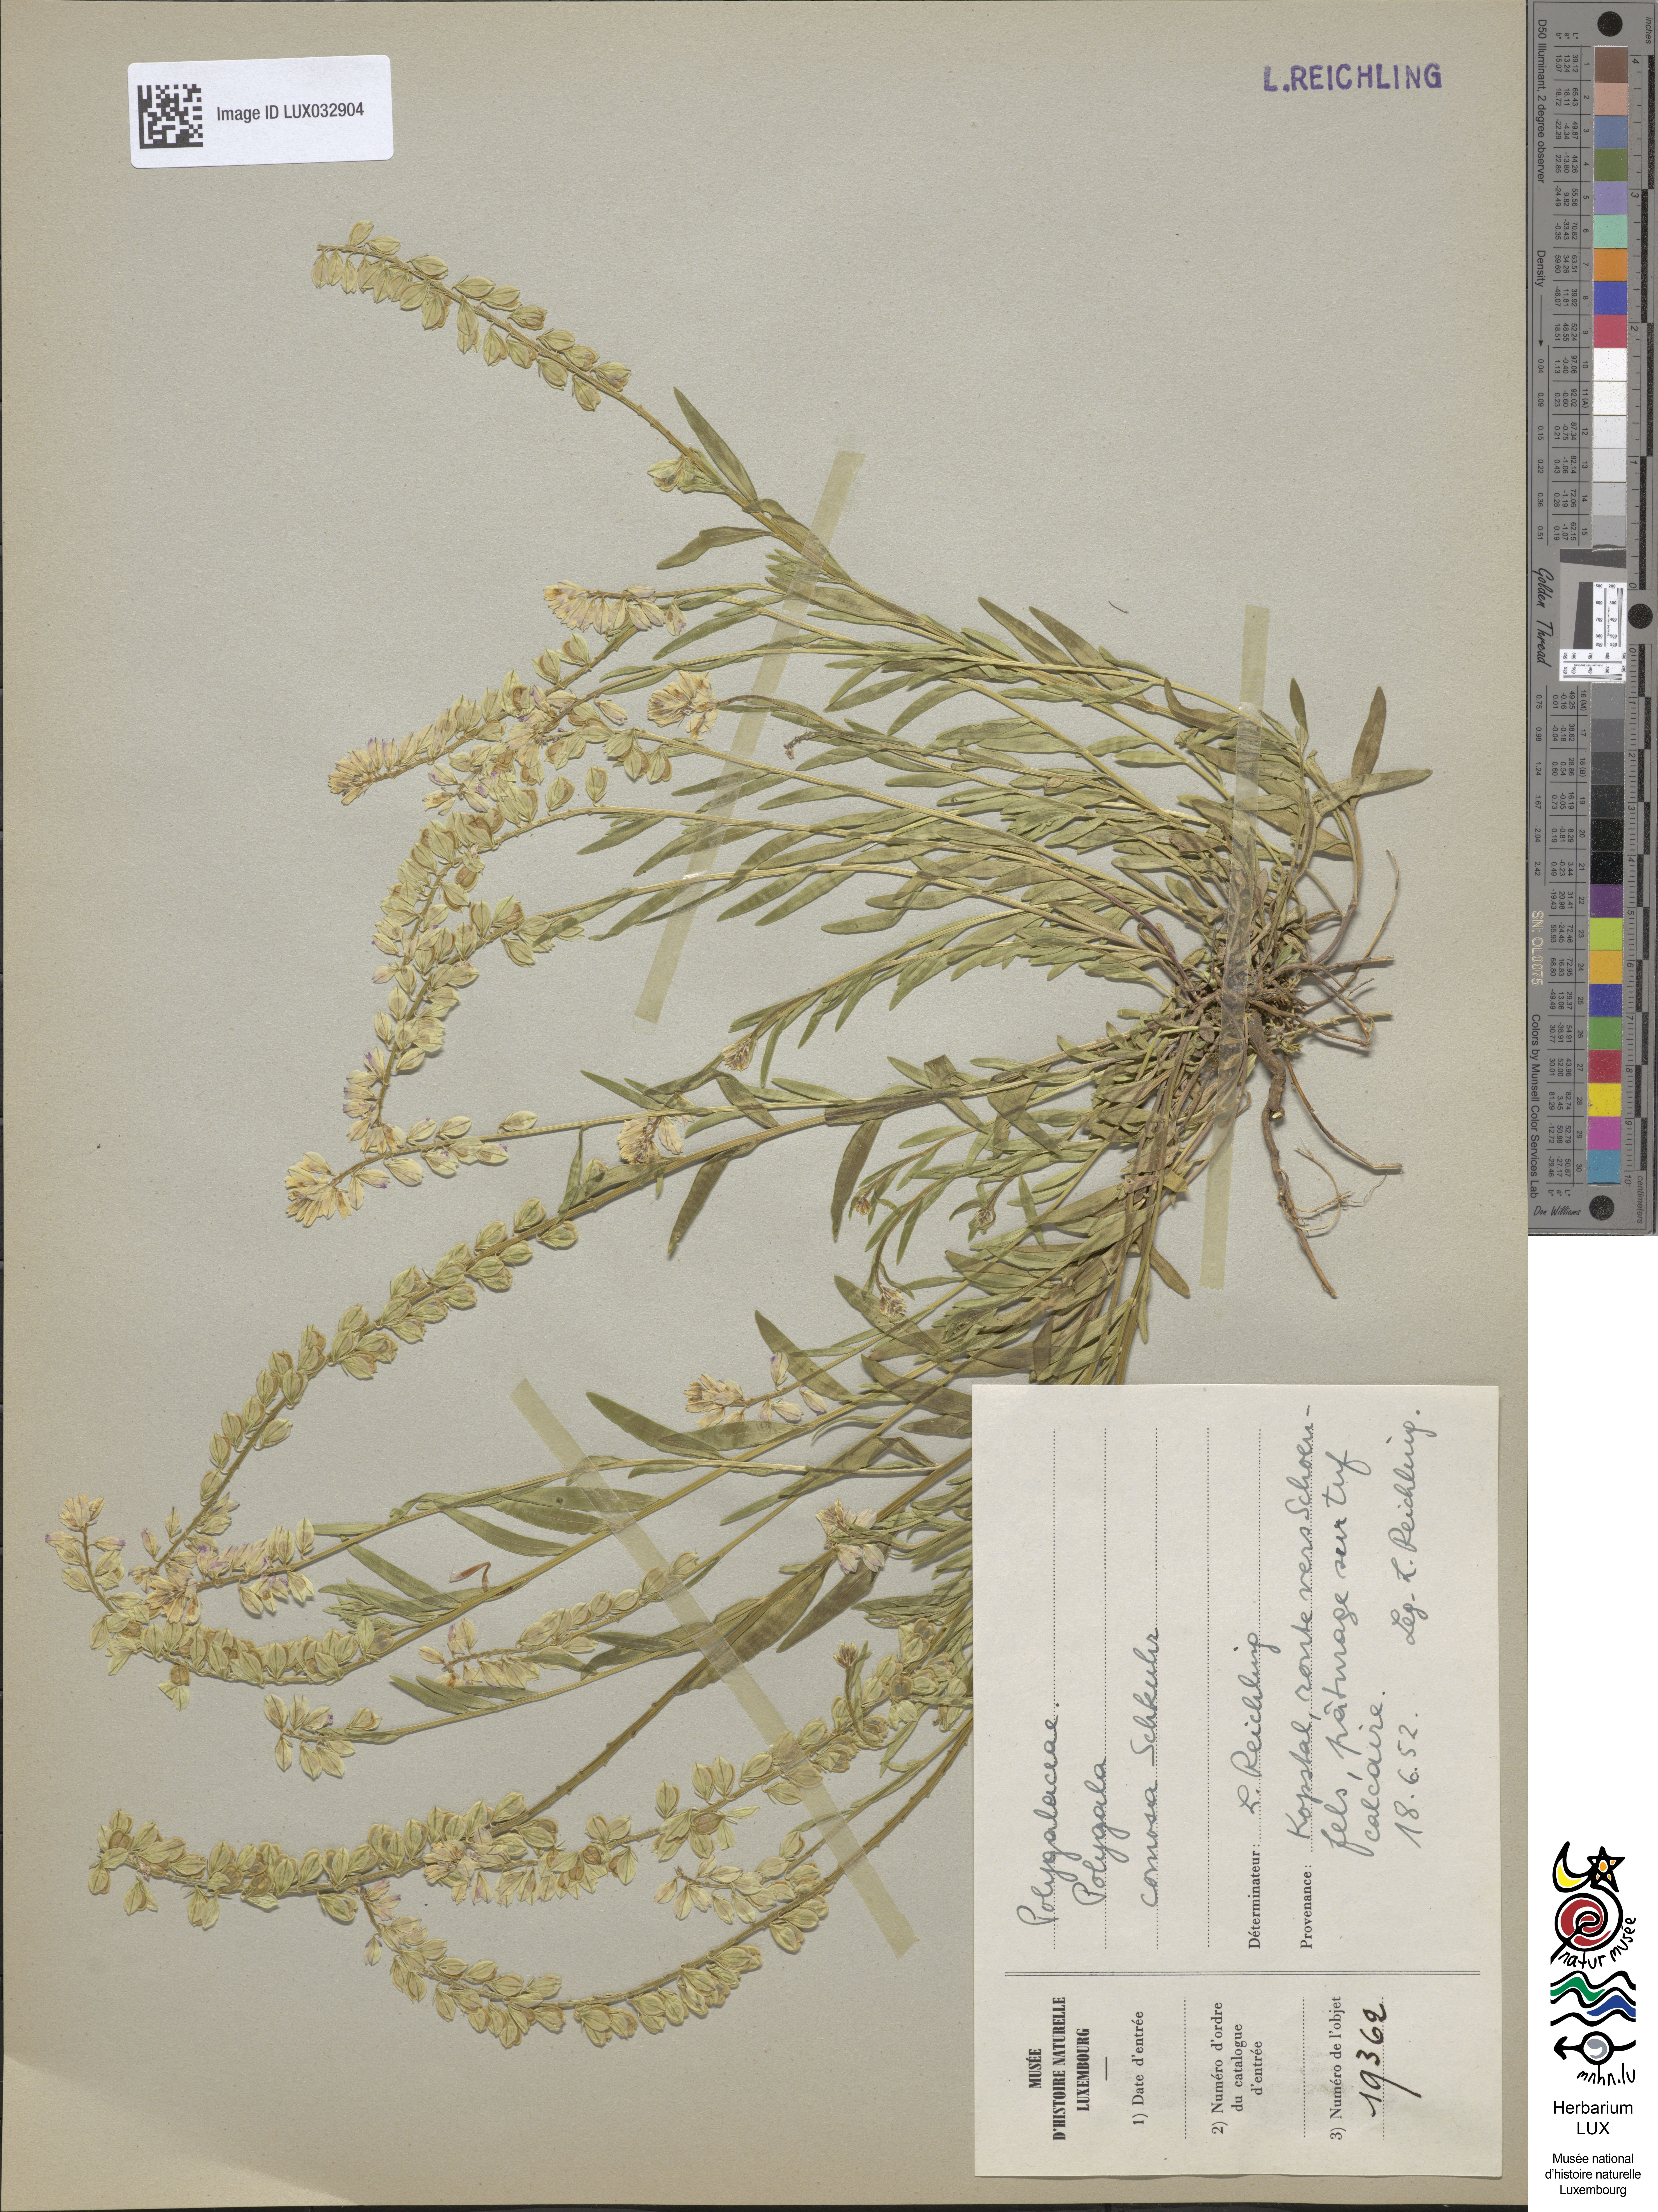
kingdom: Plantae
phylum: Tracheophyta
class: Magnoliopsida
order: Fabales
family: Polygalaceae
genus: Polygala
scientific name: Polygala comosa
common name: Tufted milkwort
